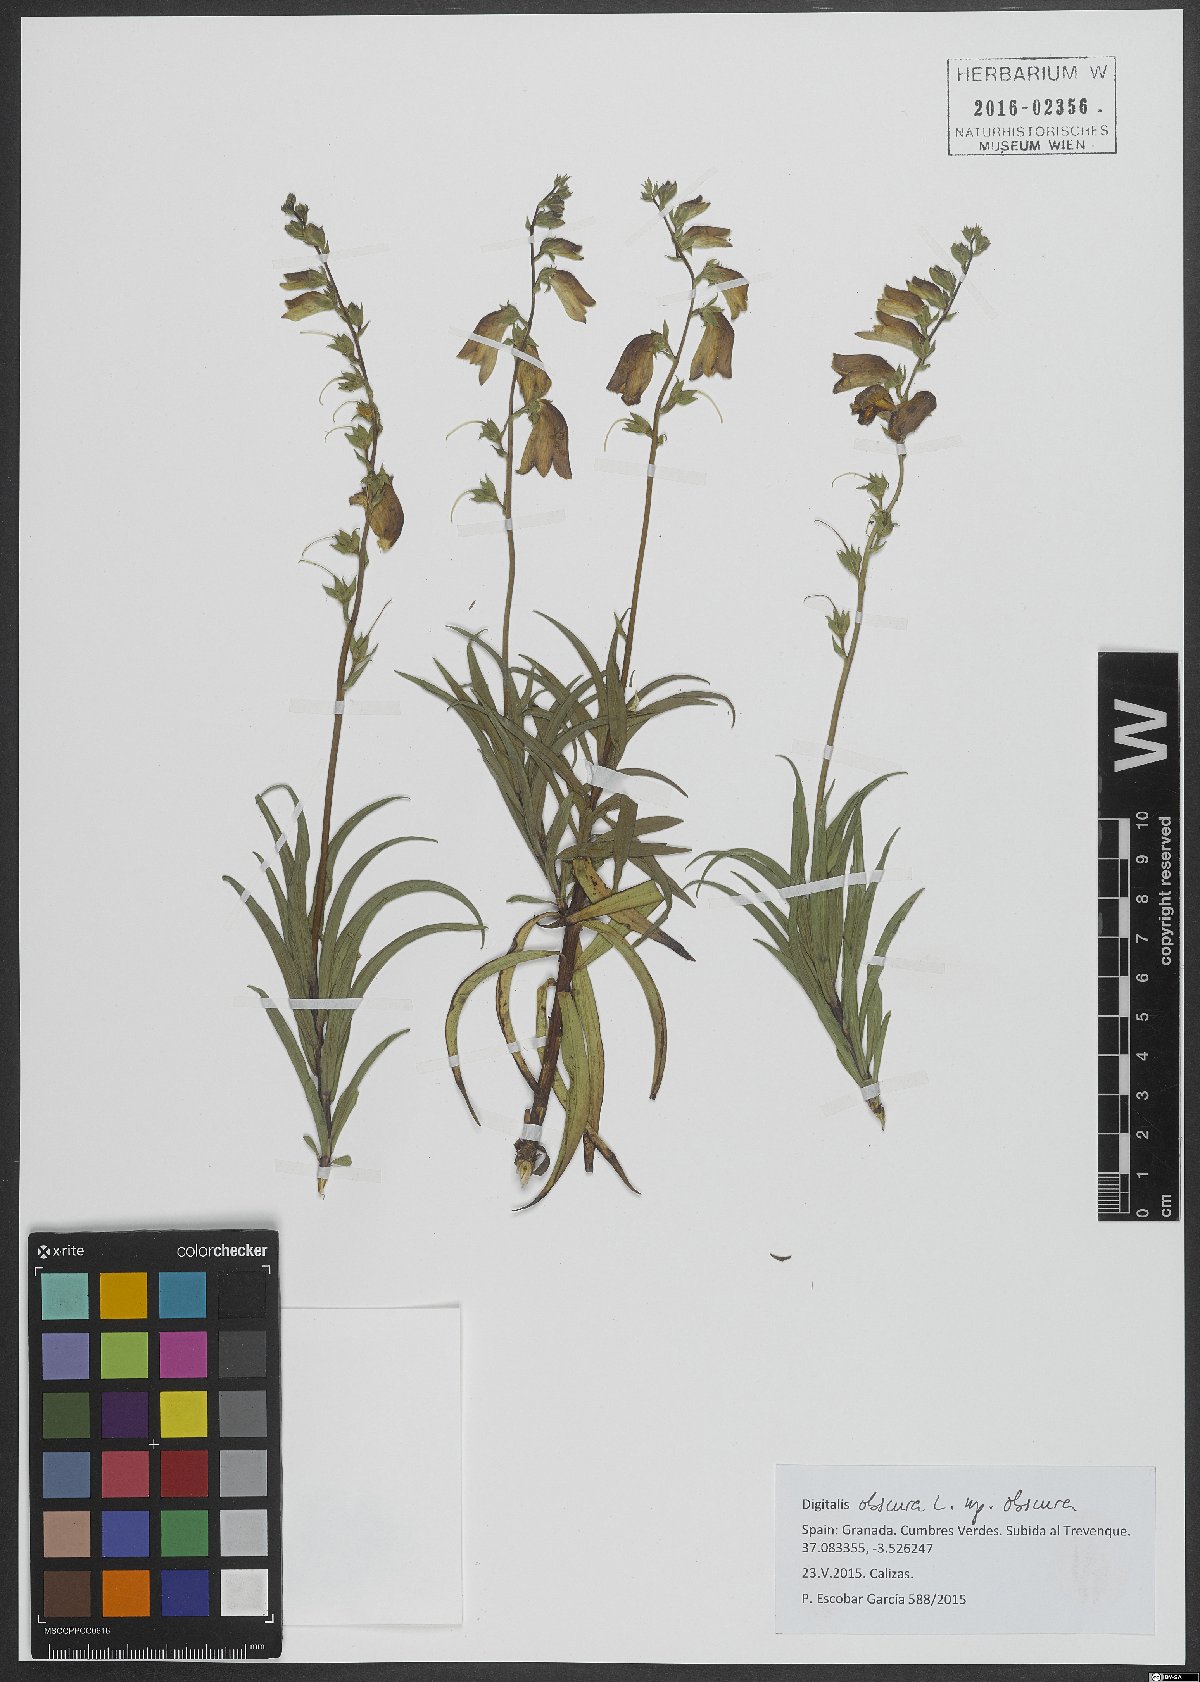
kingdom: Plantae
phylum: Tracheophyta
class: Magnoliopsida
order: Lamiales
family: Plantaginaceae
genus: Digitalis
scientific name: Digitalis obscura
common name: Willow-leaf foxglove
